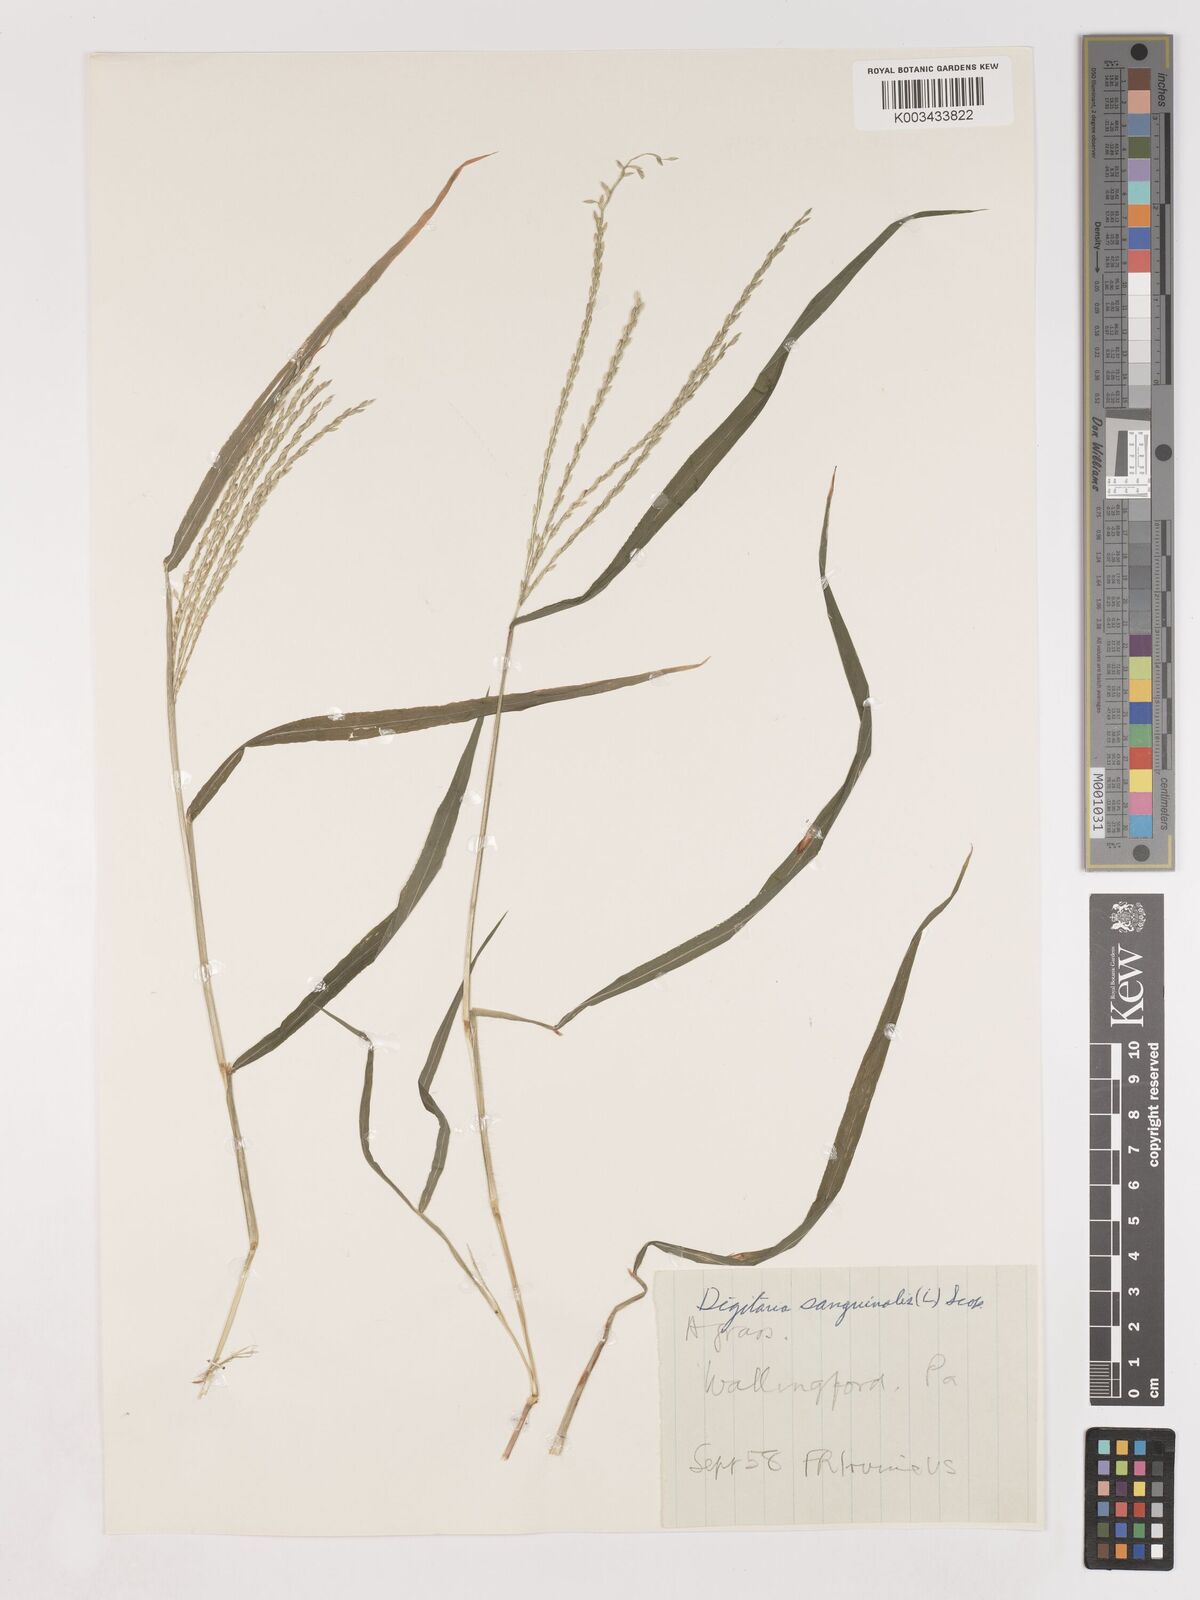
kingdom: Plantae
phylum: Tracheophyta
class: Liliopsida
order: Poales
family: Poaceae
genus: Digitaria
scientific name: Digitaria ciliaris
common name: Tropical finger-grass
